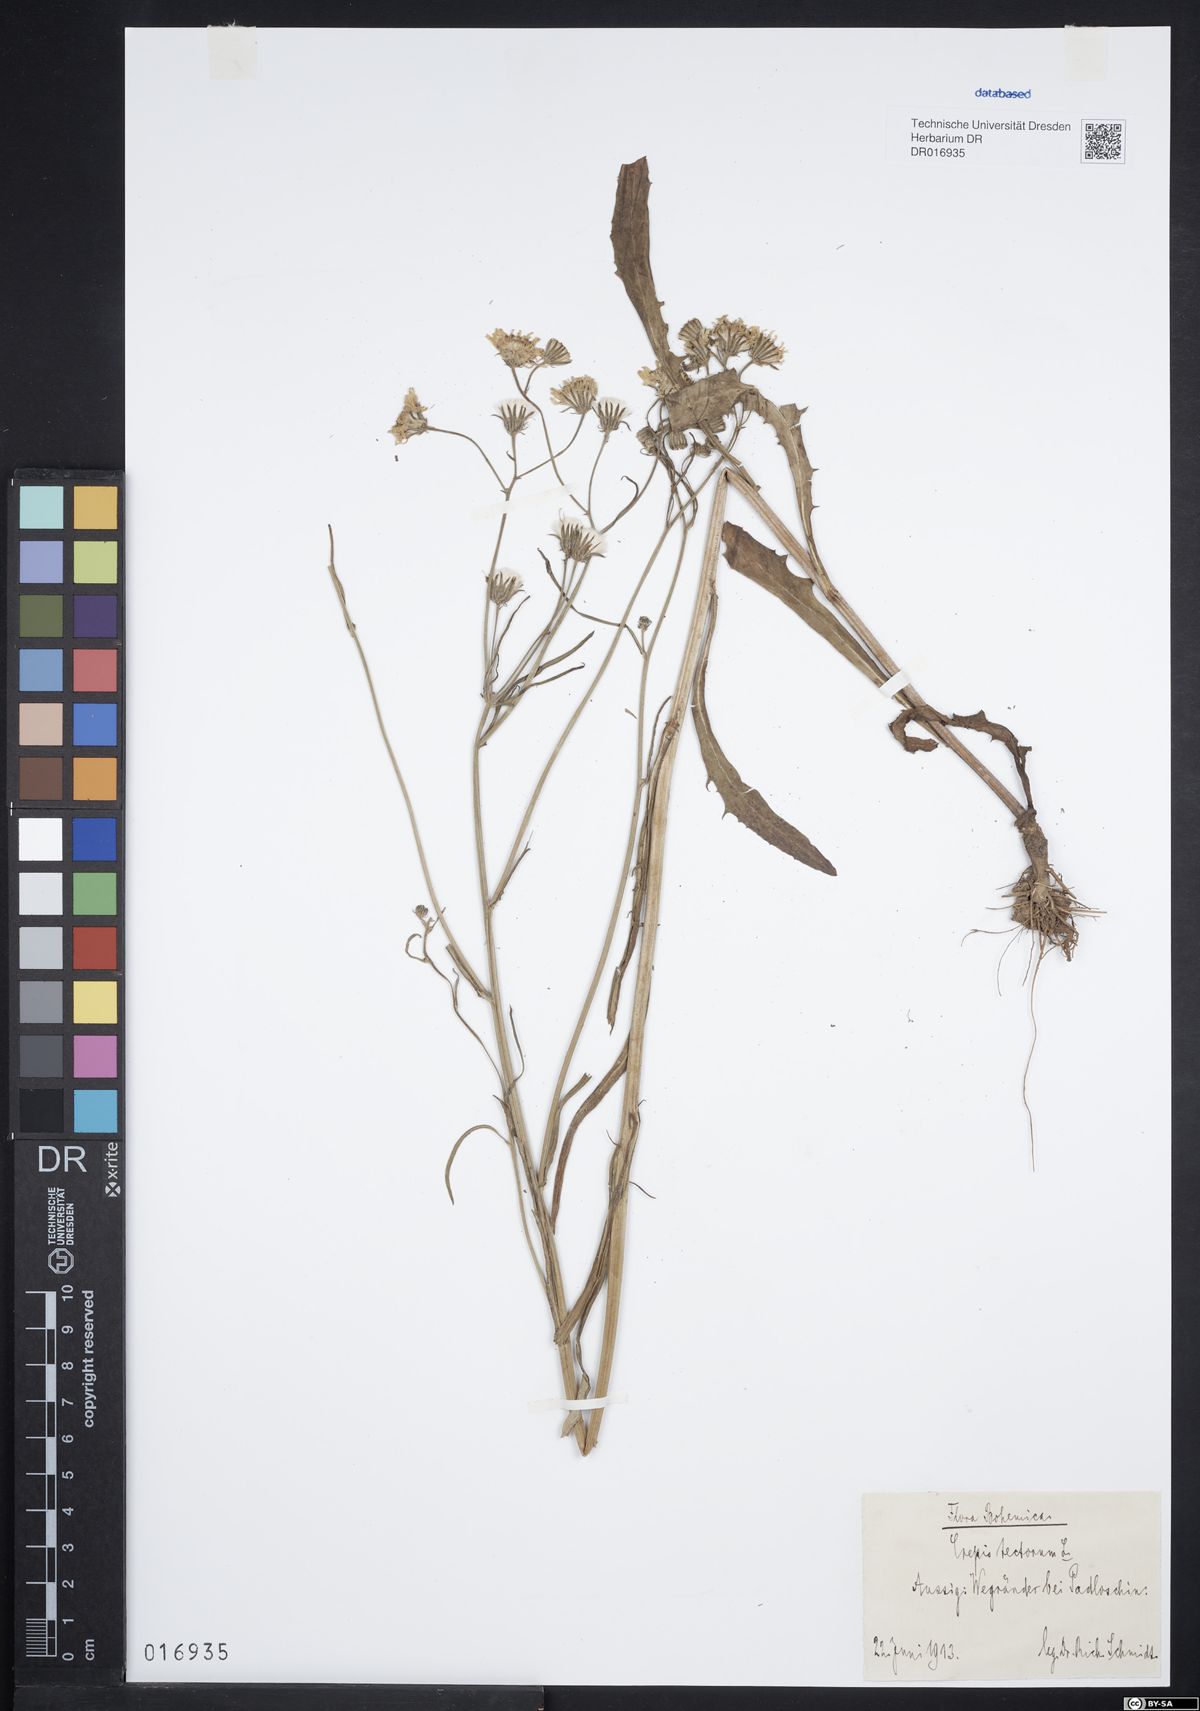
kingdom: Plantae
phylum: Tracheophyta
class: Magnoliopsida
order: Asterales
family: Asteraceae
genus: Crepis
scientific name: Crepis tectorum
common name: Narrow-leaved hawk's-beard
